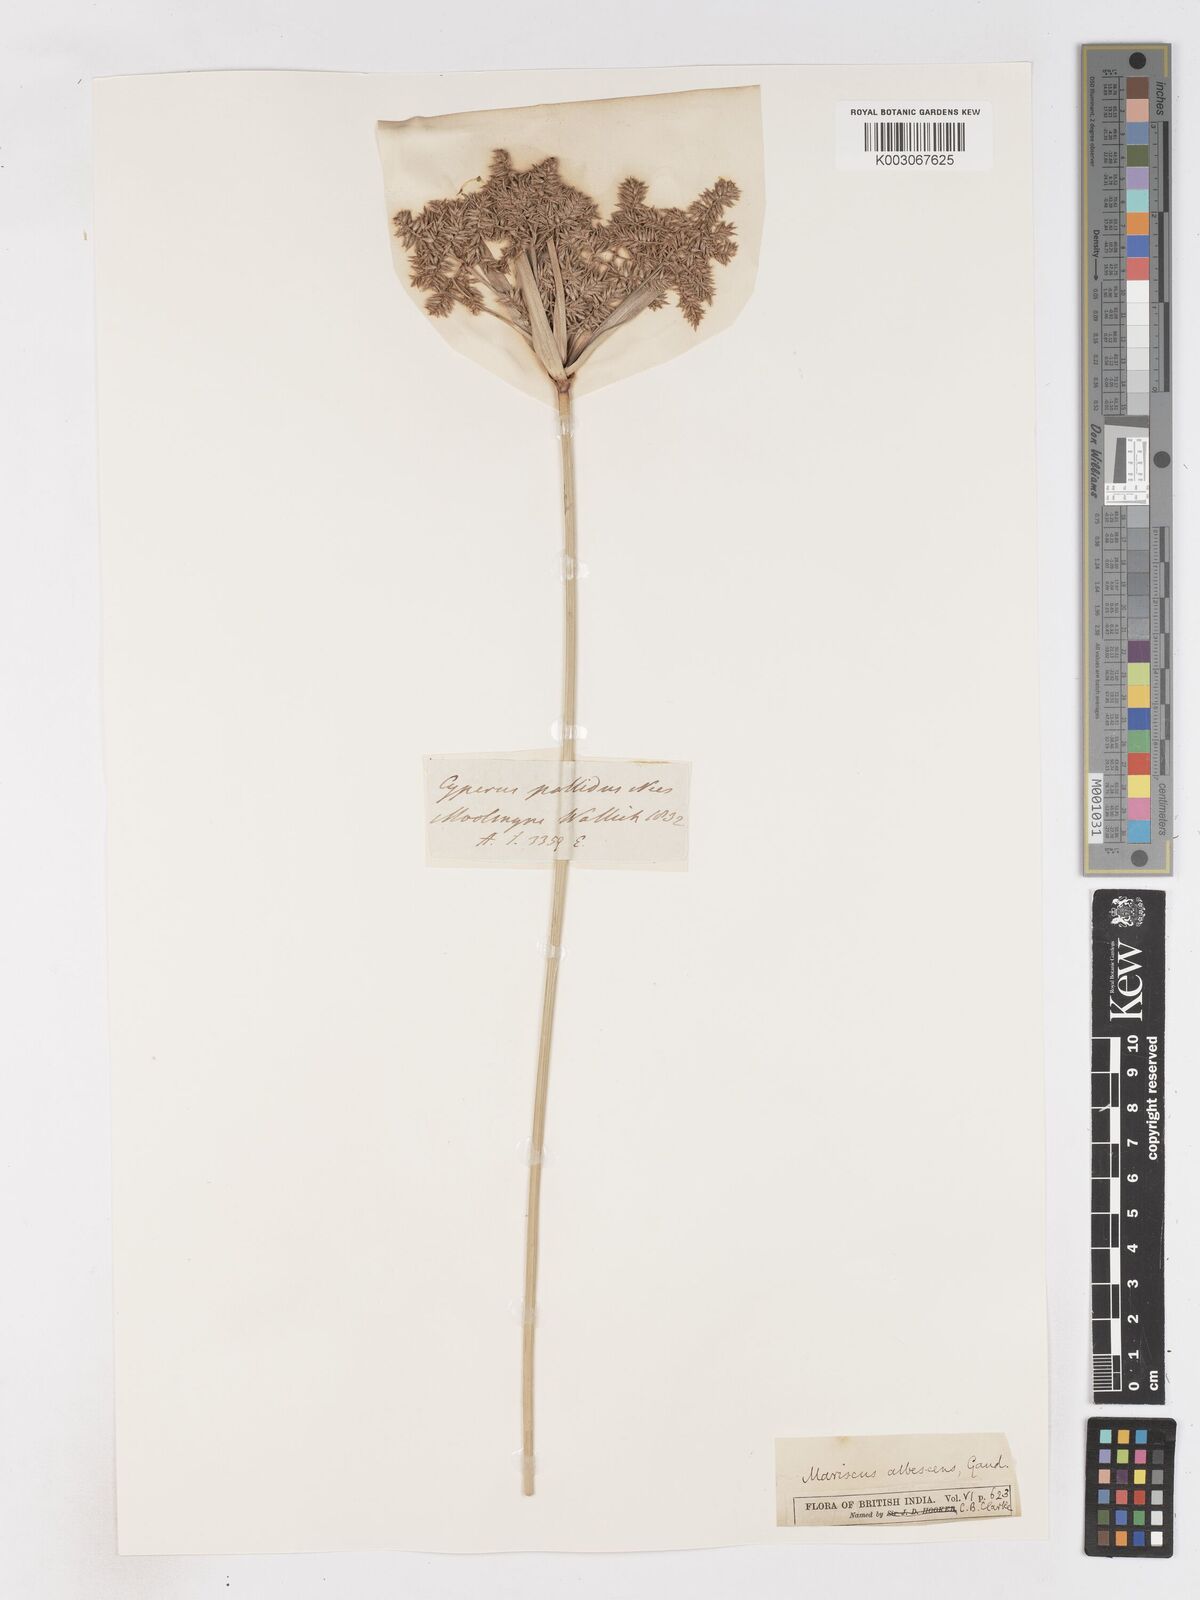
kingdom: Plantae
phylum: Tracheophyta
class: Liliopsida
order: Poales
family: Cyperaceae
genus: Cyperus
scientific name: Cyperus javanicus
